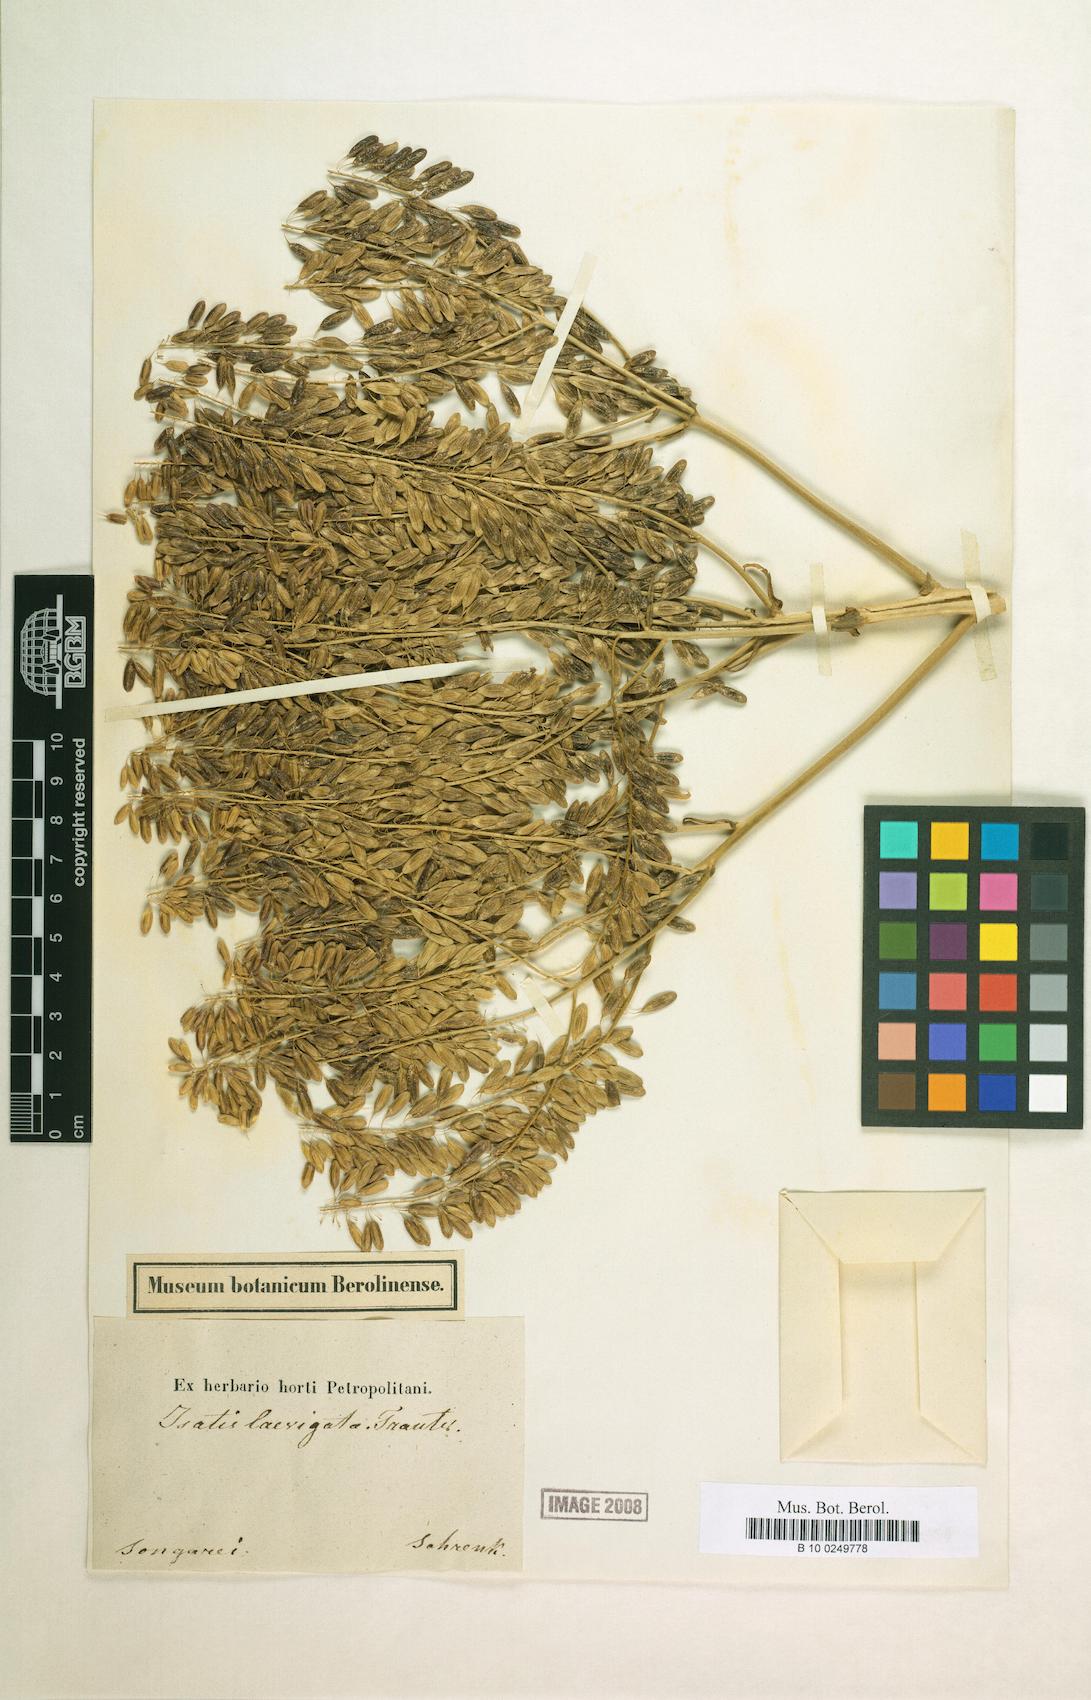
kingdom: Plantae
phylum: Tracheophyta
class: Magnoliopsida
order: Brassicales
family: Brassicaceae
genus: Isatis
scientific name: Isatis laevigata
